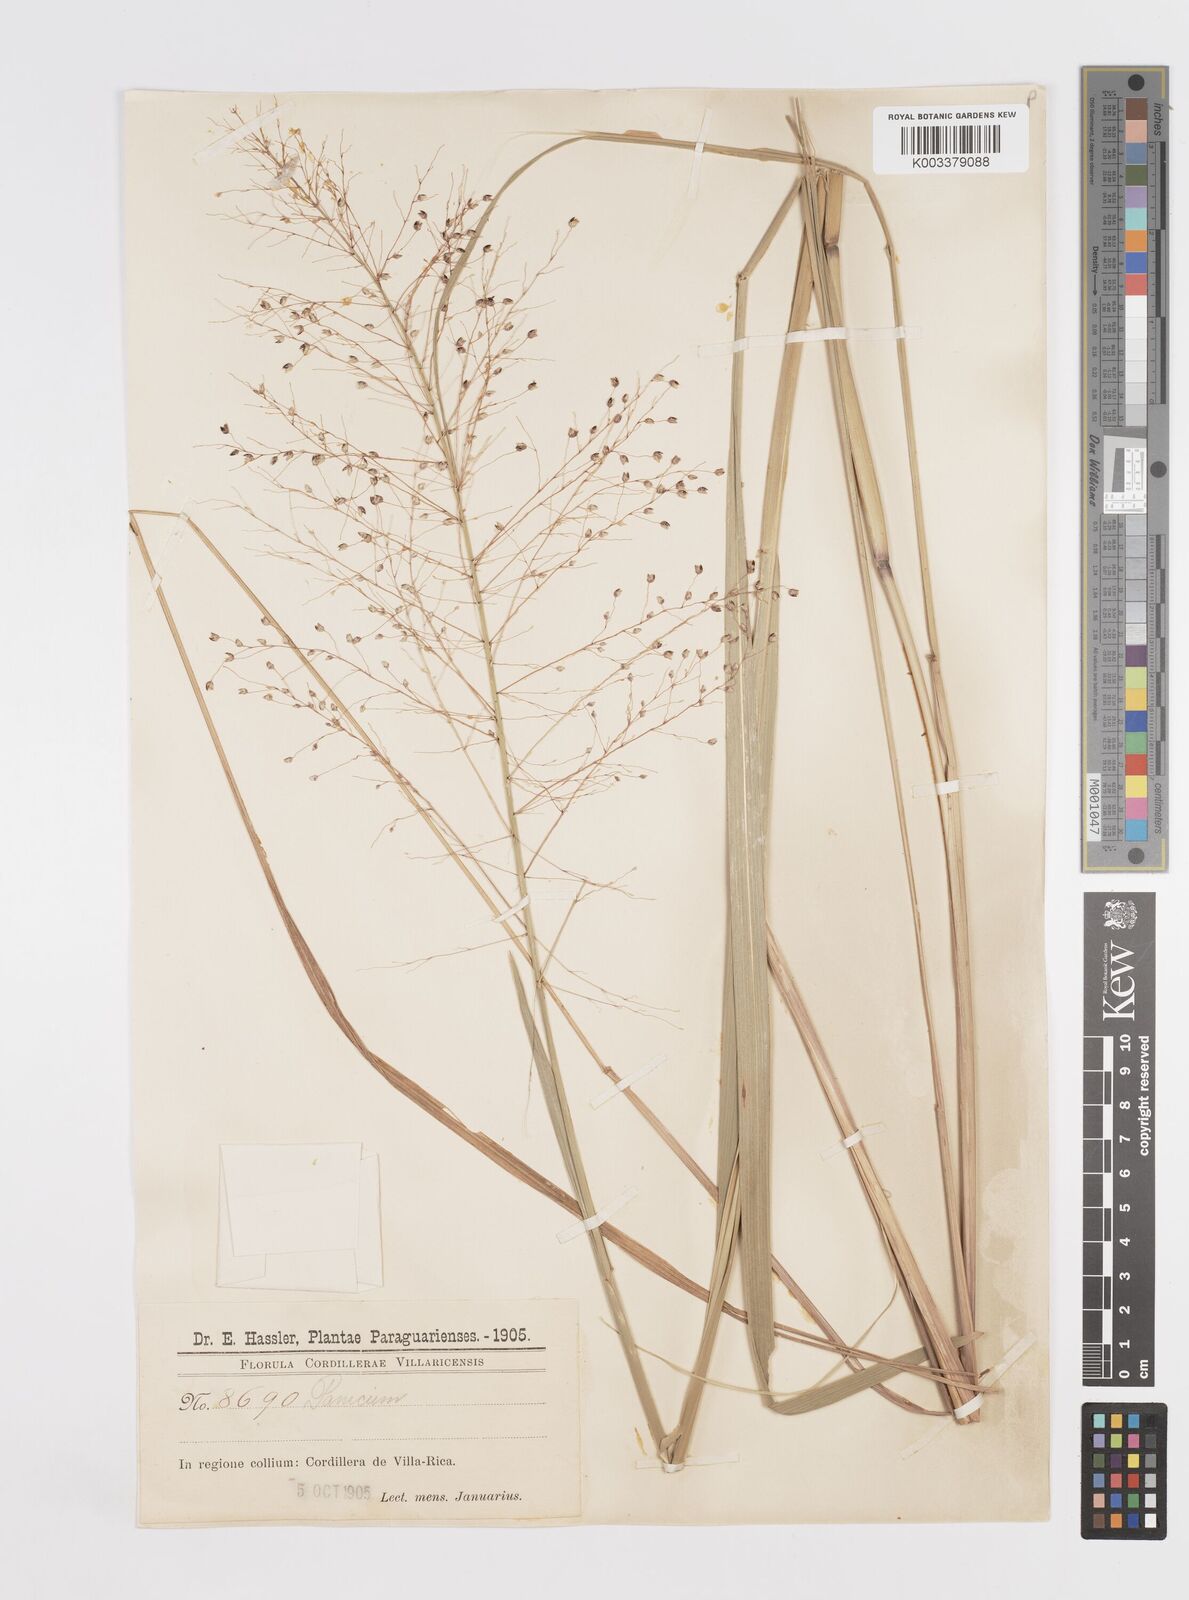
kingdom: Plantae
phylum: Tracheophyta
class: Liliopsida
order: Poales
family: Poaceae
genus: Otachyrium
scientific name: Otachyrium versicolor
